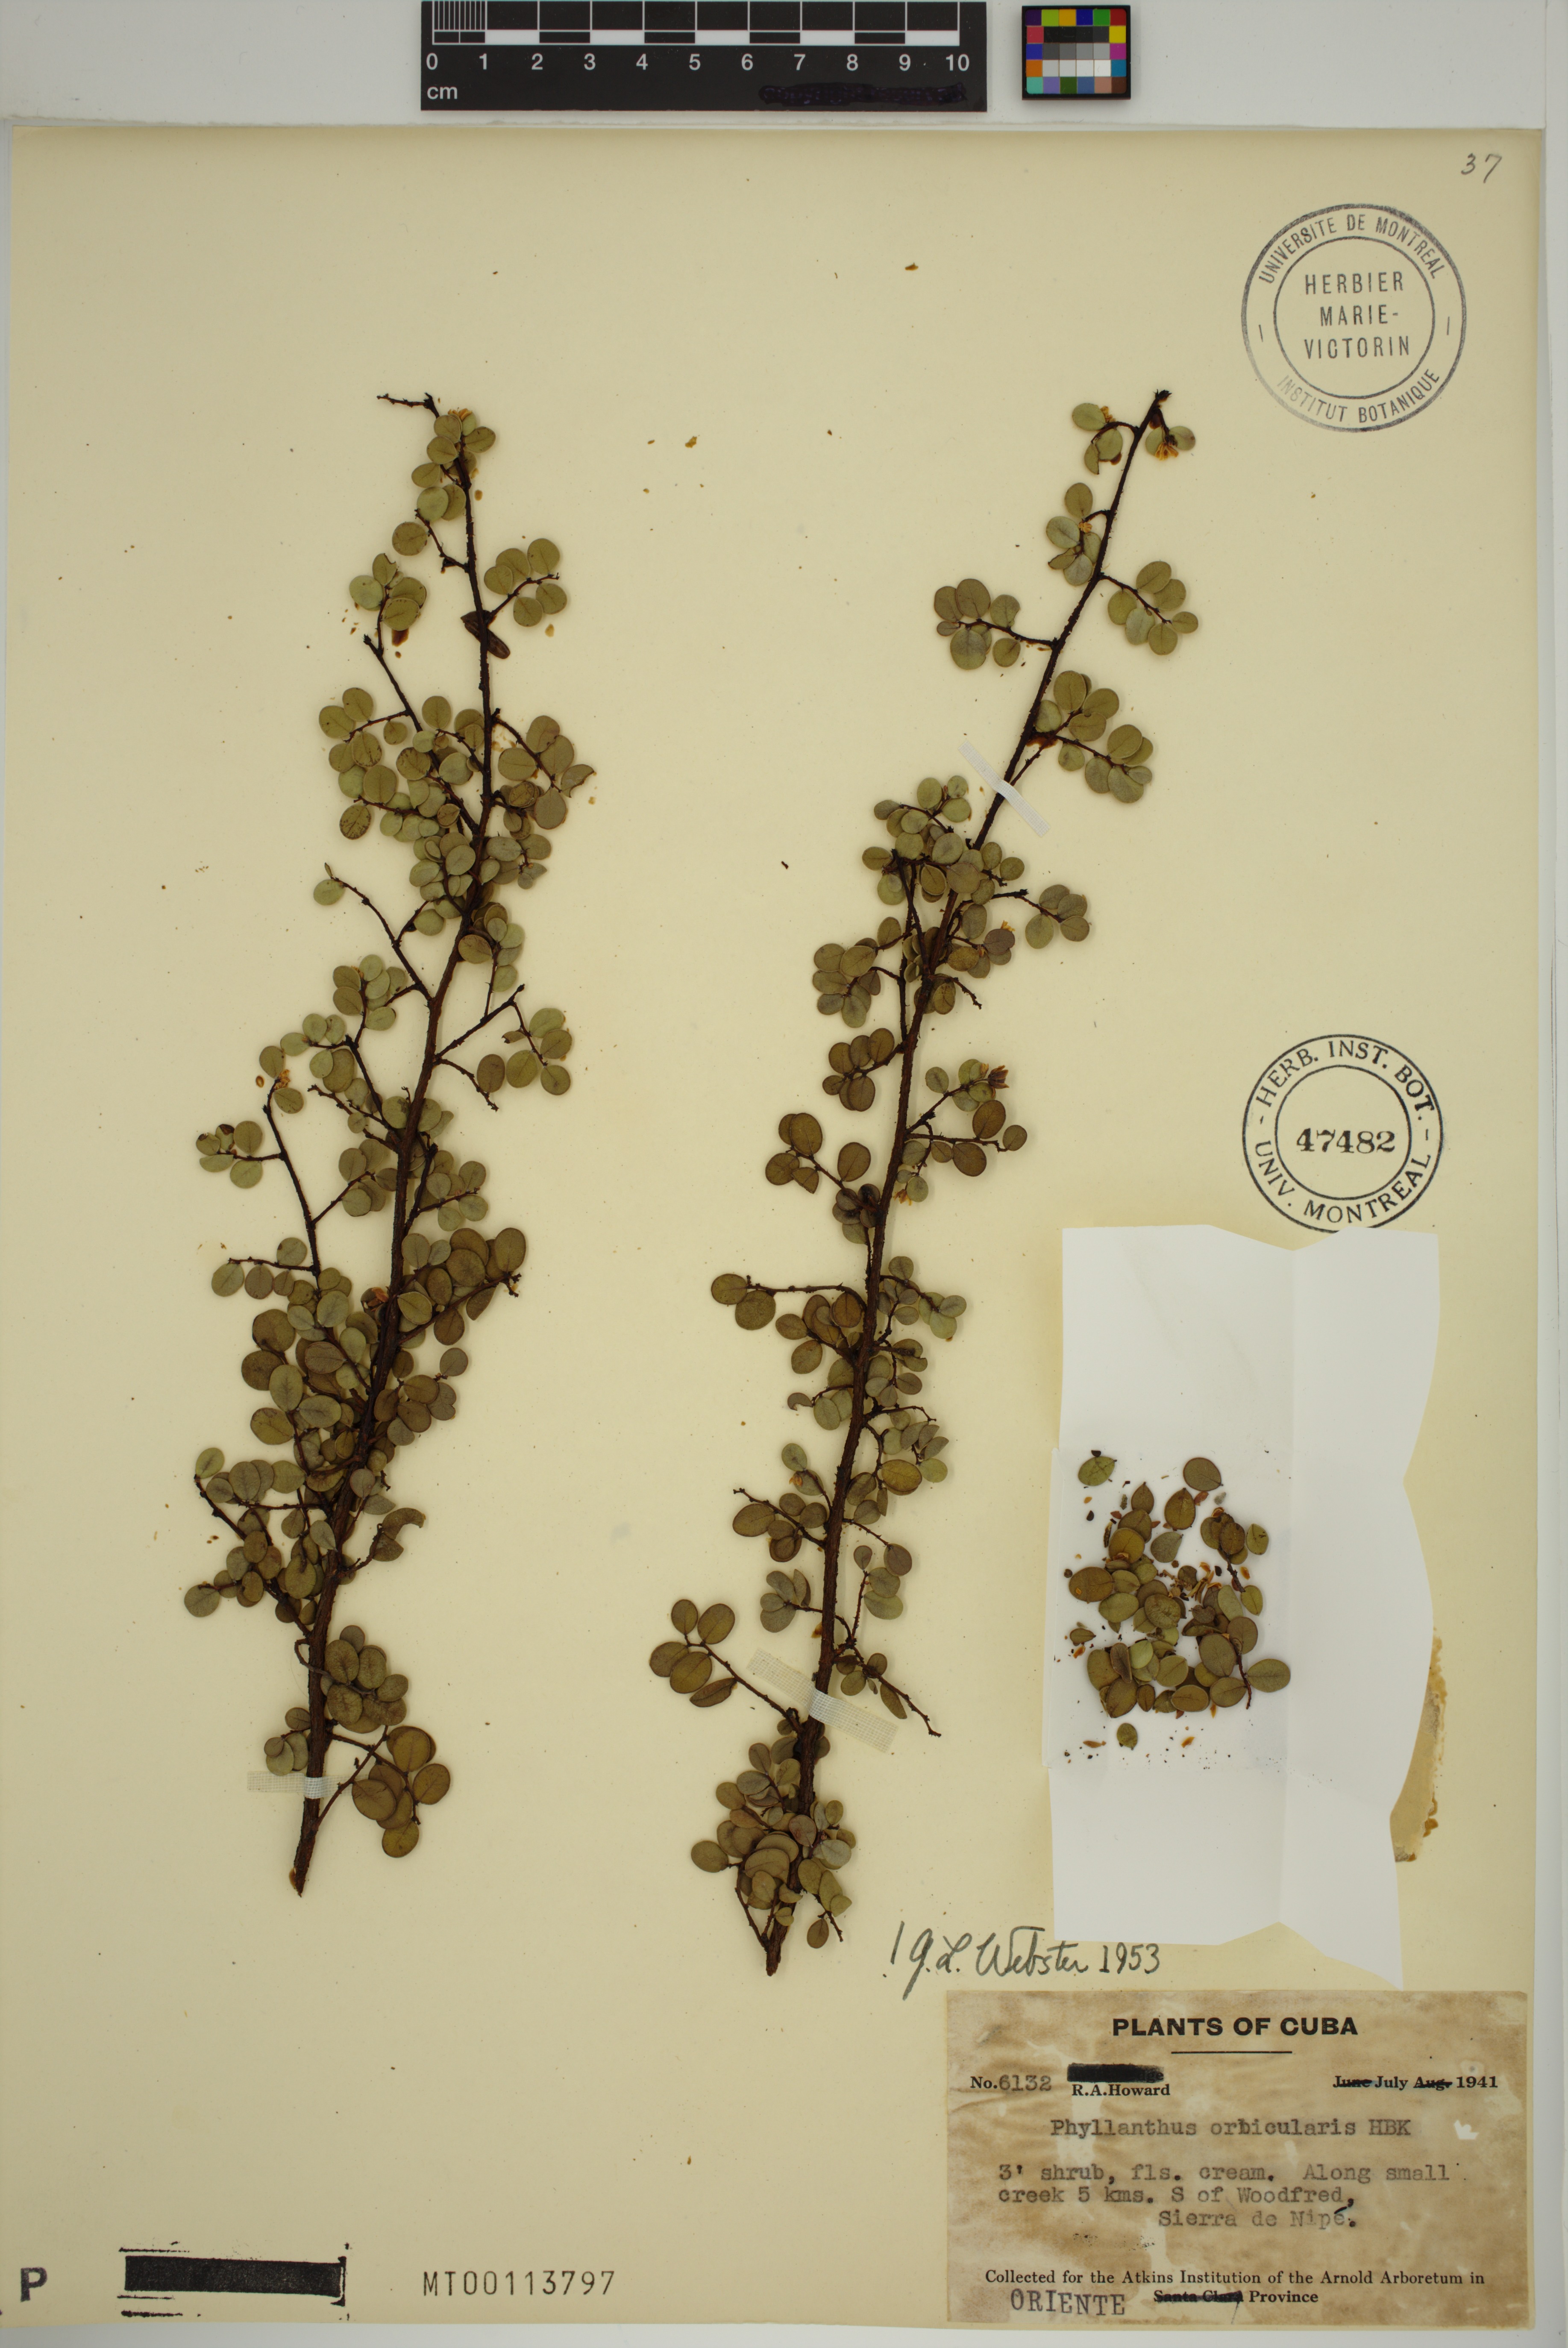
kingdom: Plantae
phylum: Tracheophyta
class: Magnoliopsida
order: Malpighiales
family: Phyllanthaceae
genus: Phyllanthus
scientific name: Phyllanthus orbicularis
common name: Wedge leaf-flower
